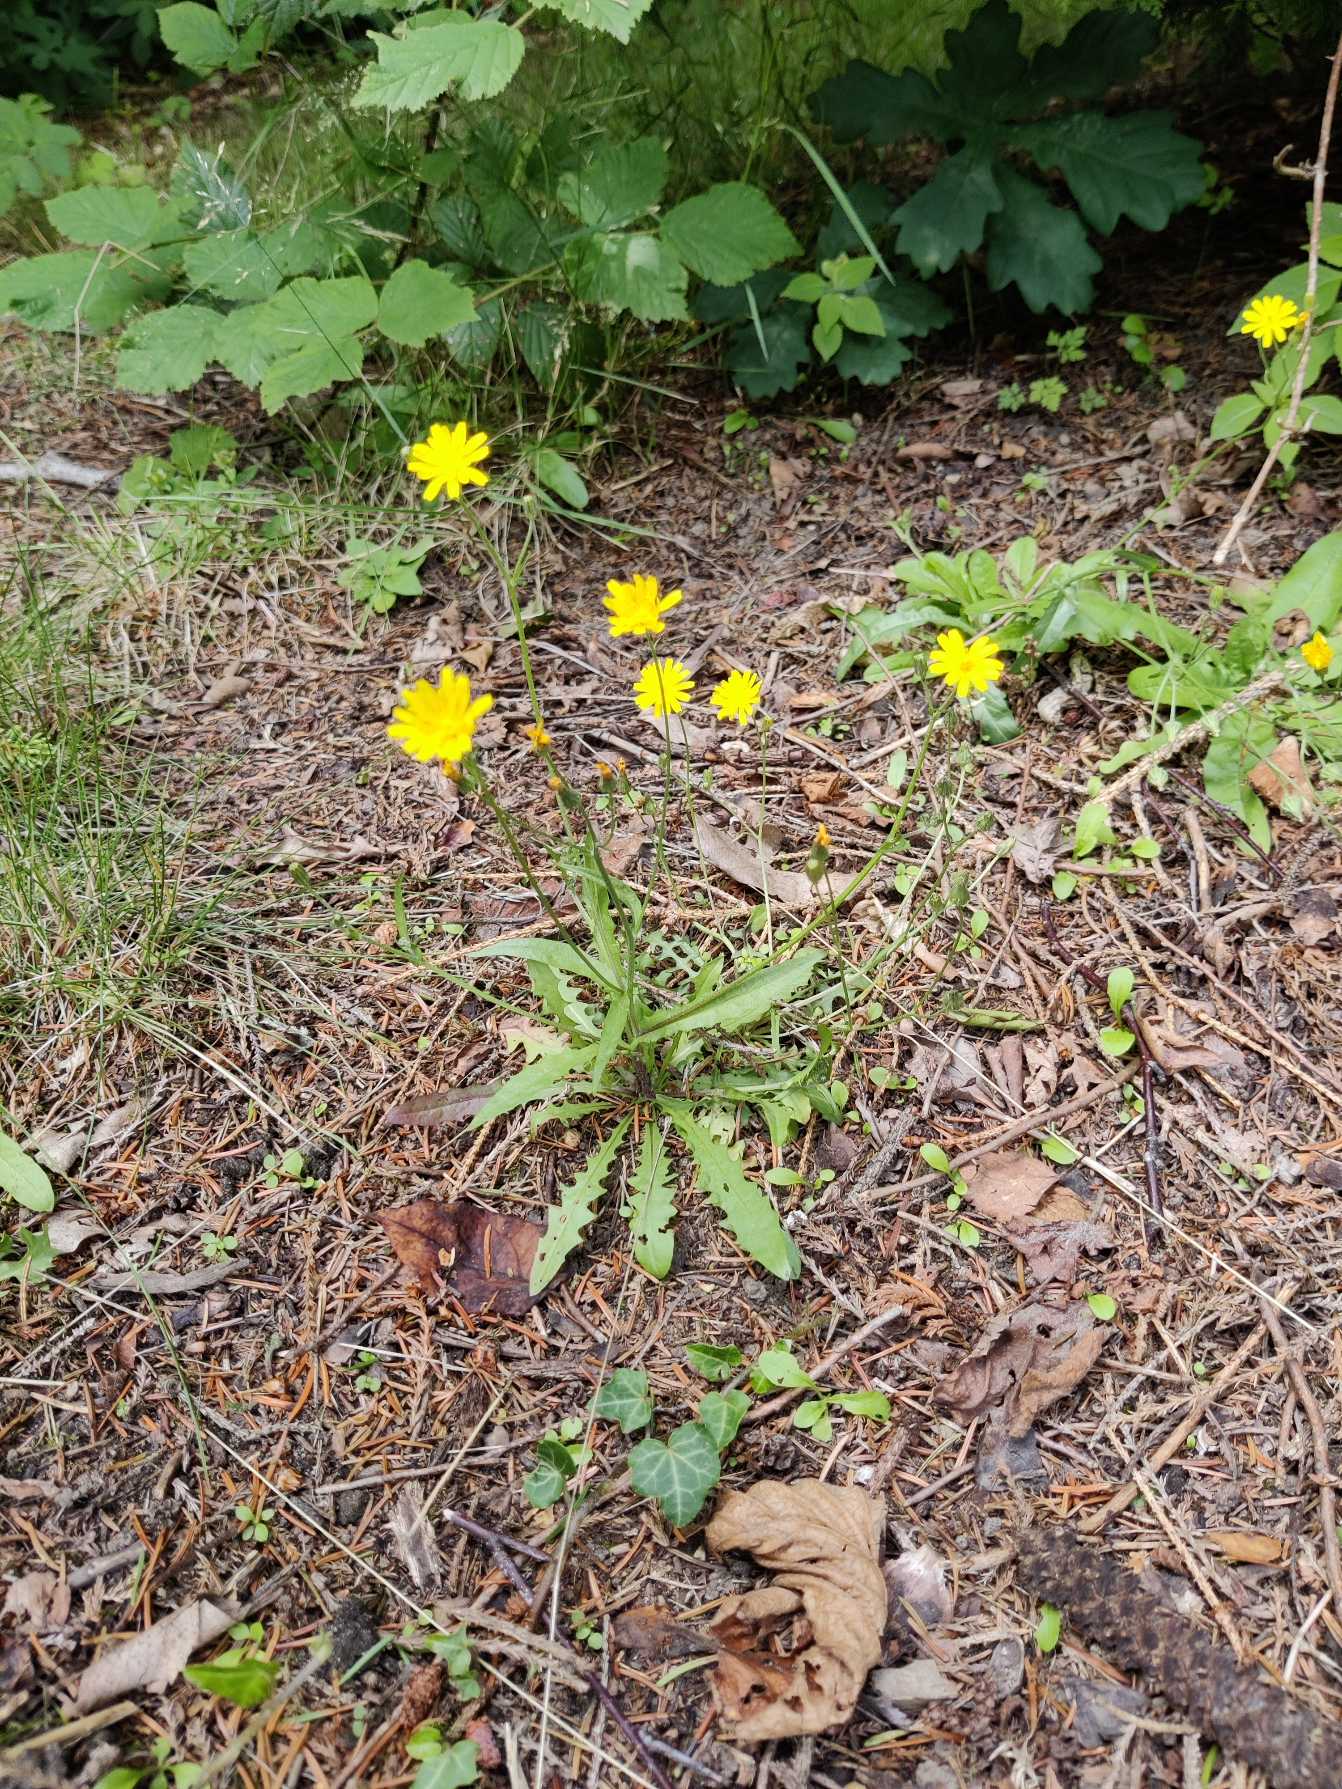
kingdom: Plantae
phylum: Tracheophyta
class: Magnoliopsida
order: Asterales
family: Asteraceae
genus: Crepis
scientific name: Crepis capillaris
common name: Grøn høgeskæg
